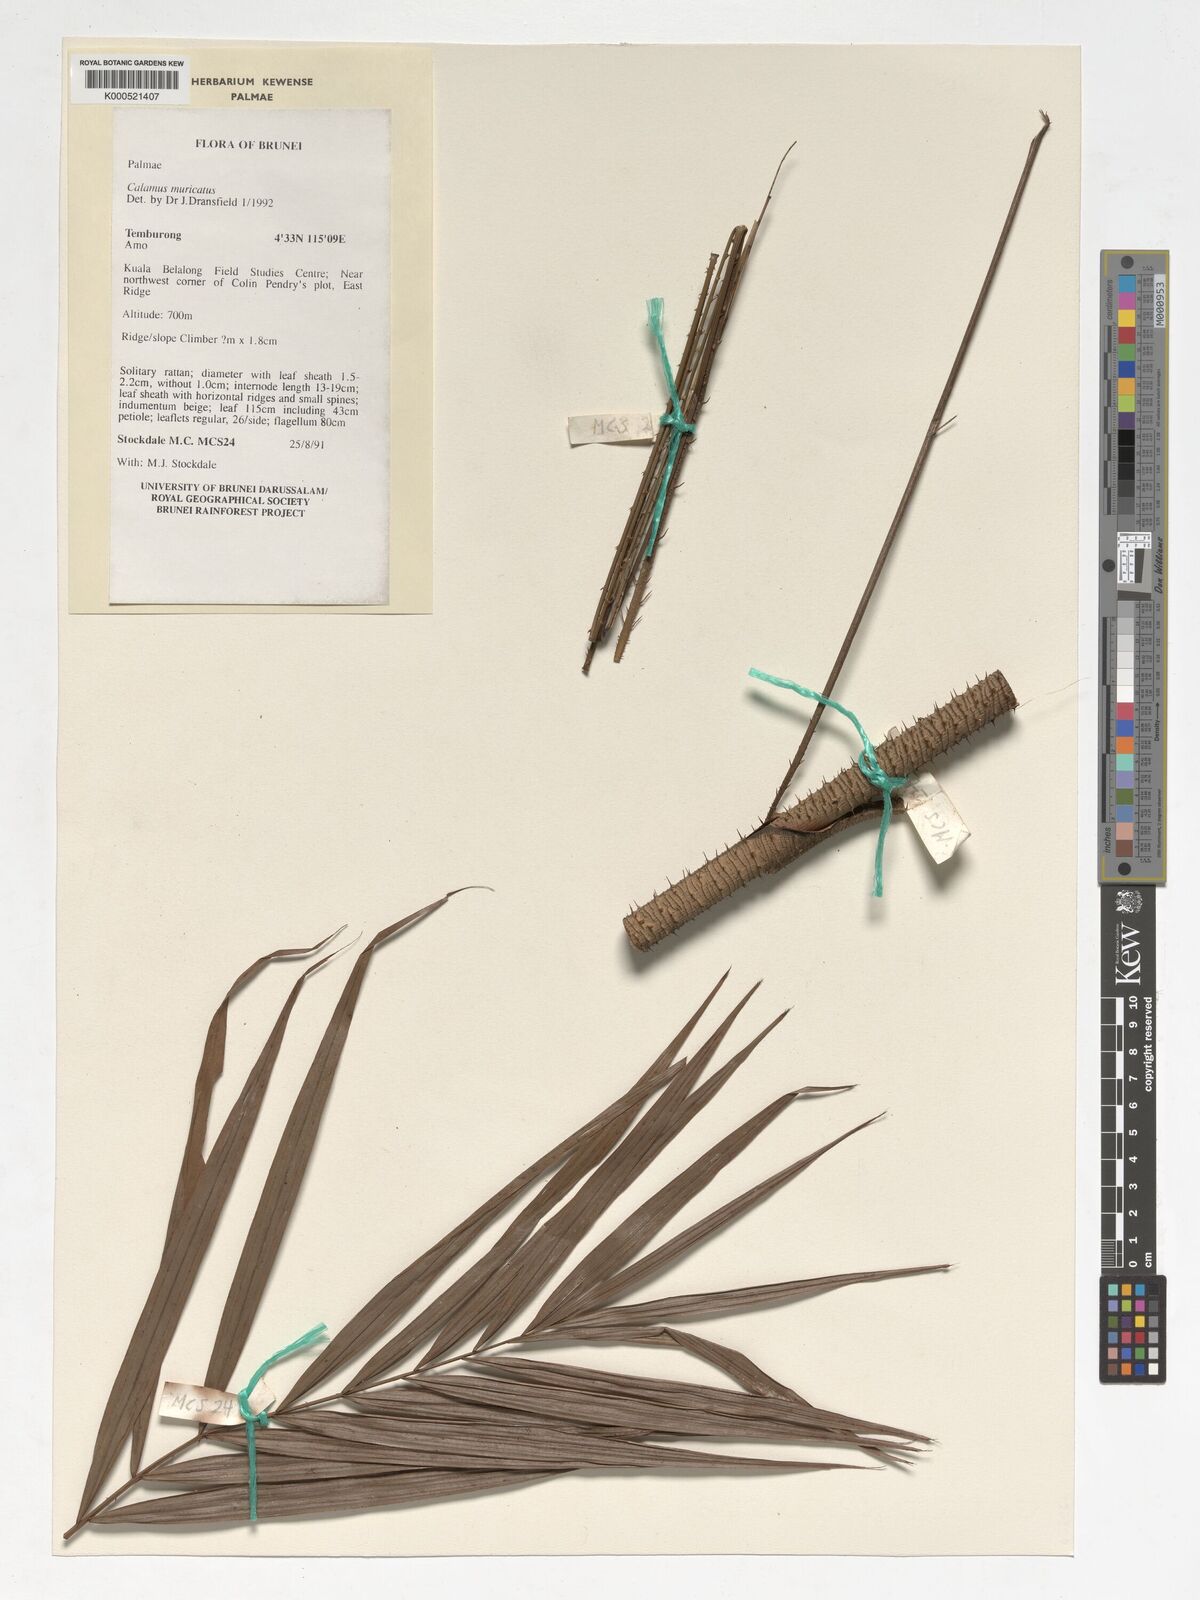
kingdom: Plantae
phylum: Tracheophyta
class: Liliopsida
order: Arecales
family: Arecaceae
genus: Calamus
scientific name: Calamus muricatus
